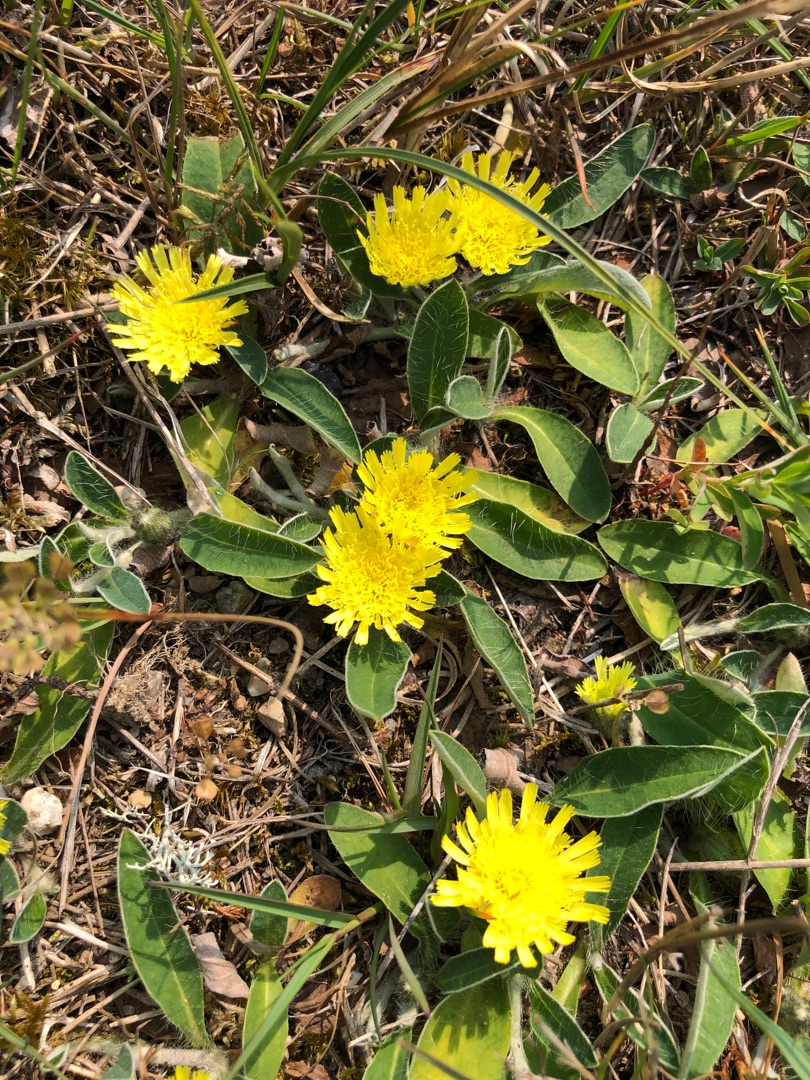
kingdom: Plantae
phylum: Tracheophyta
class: Magnoliopsida
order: Asterales
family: Asteraceae
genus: Pilosella
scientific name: Pilosella officinarum
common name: Håret høgeurt
